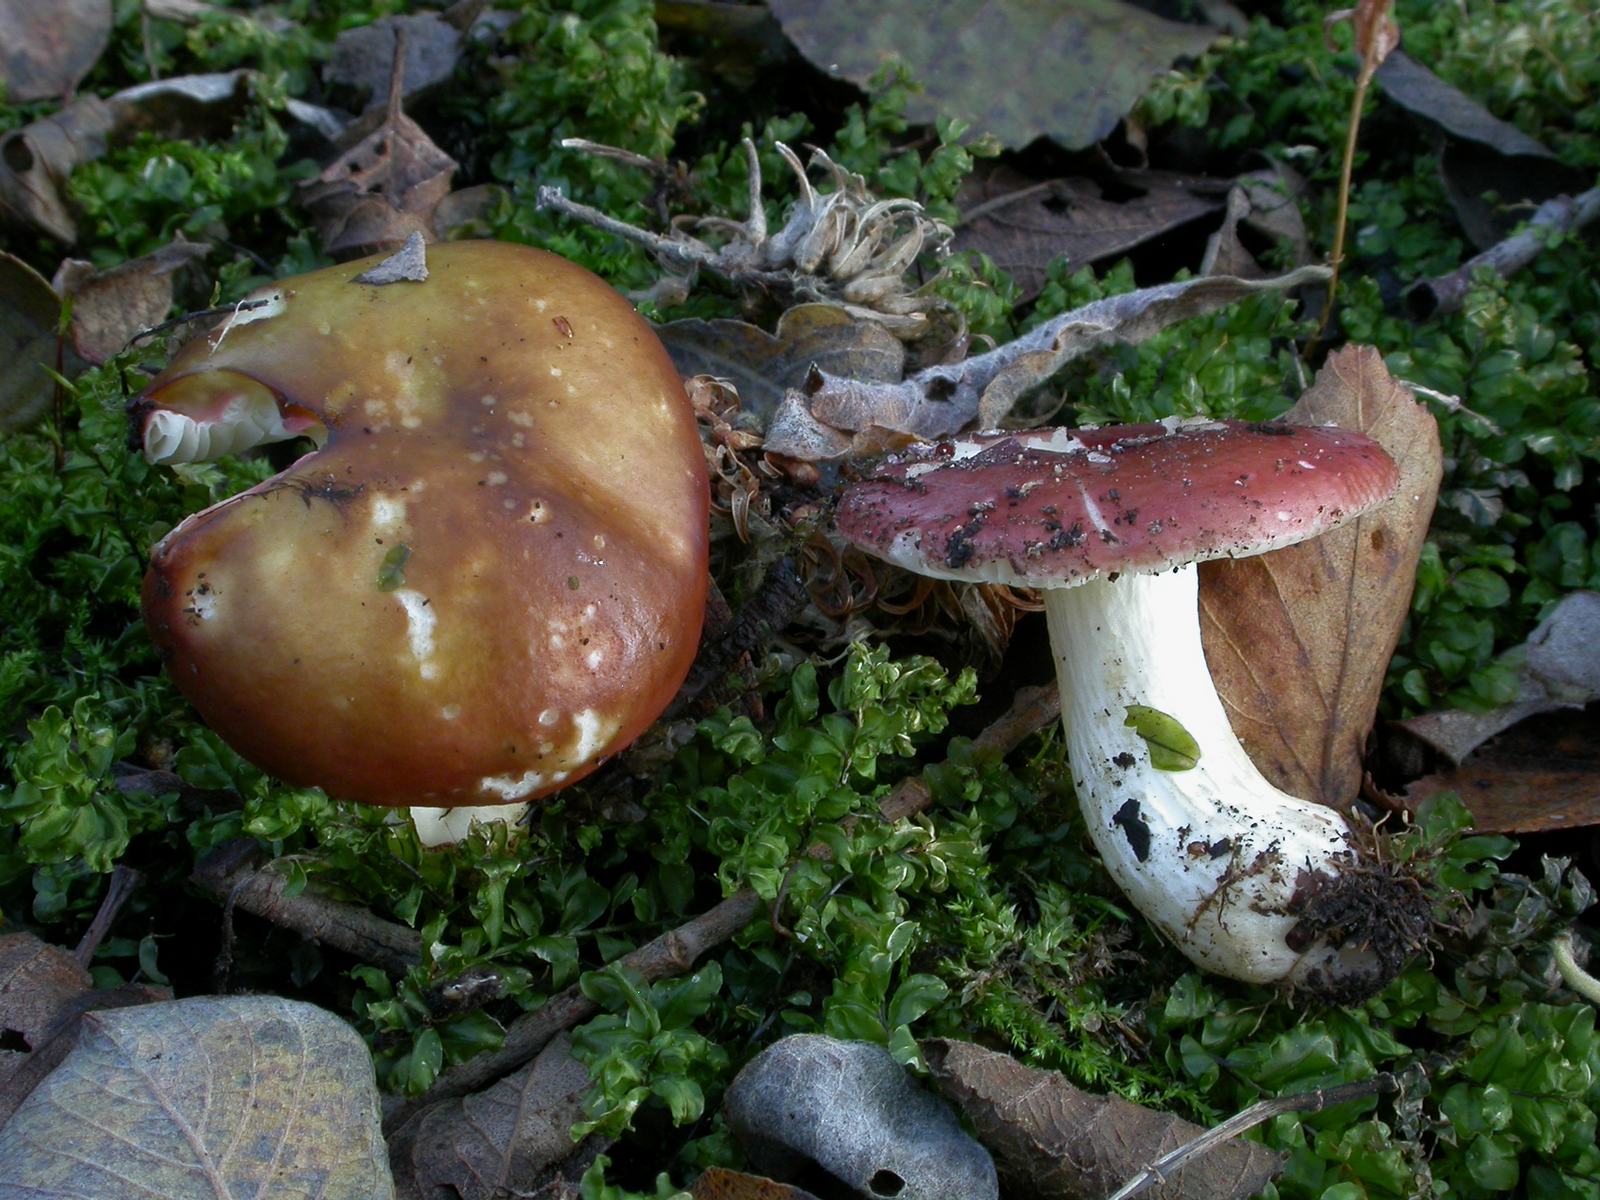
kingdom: Fungi
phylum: Basidiomycota
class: Agaricomycetes
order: Russulales
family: Russulaceae
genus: Russula
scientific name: Russula subrubens
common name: pile-skørhat
